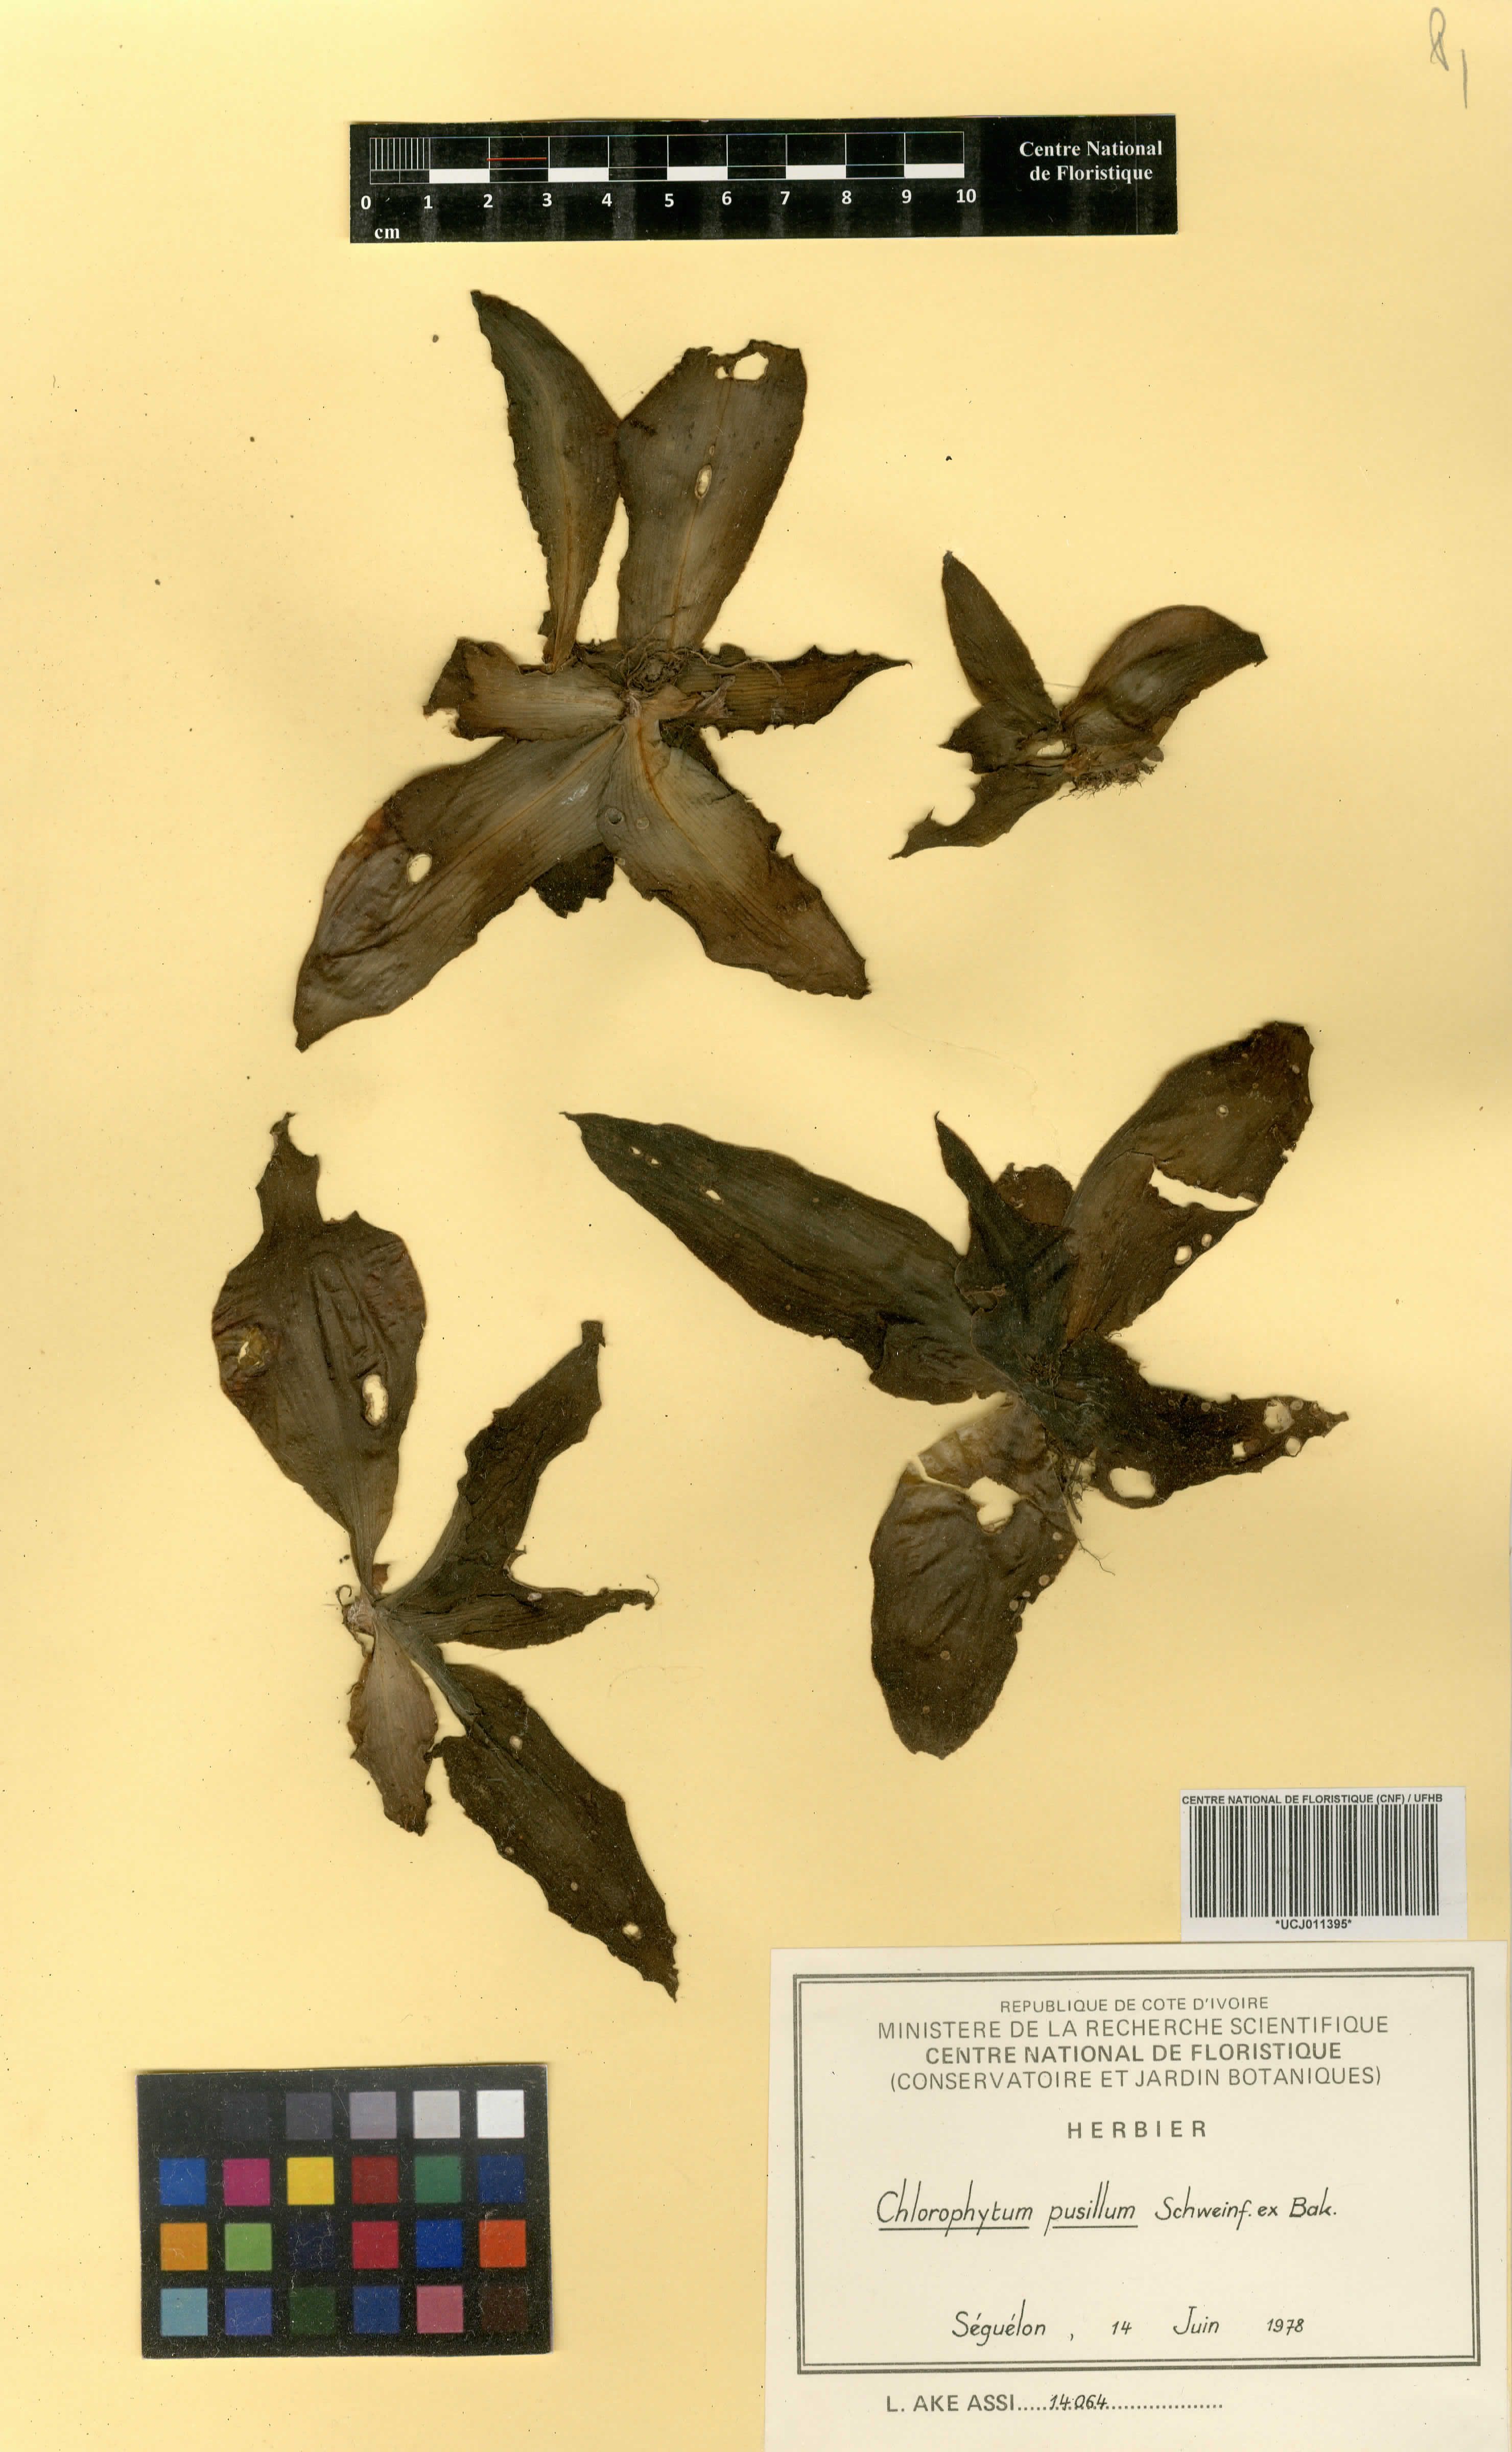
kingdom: Plantae
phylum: Tracheophyta
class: Liliopsida
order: Asparagales
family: Asparagaceae
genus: Chlorophytum
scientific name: Chlorophytum pusillum
